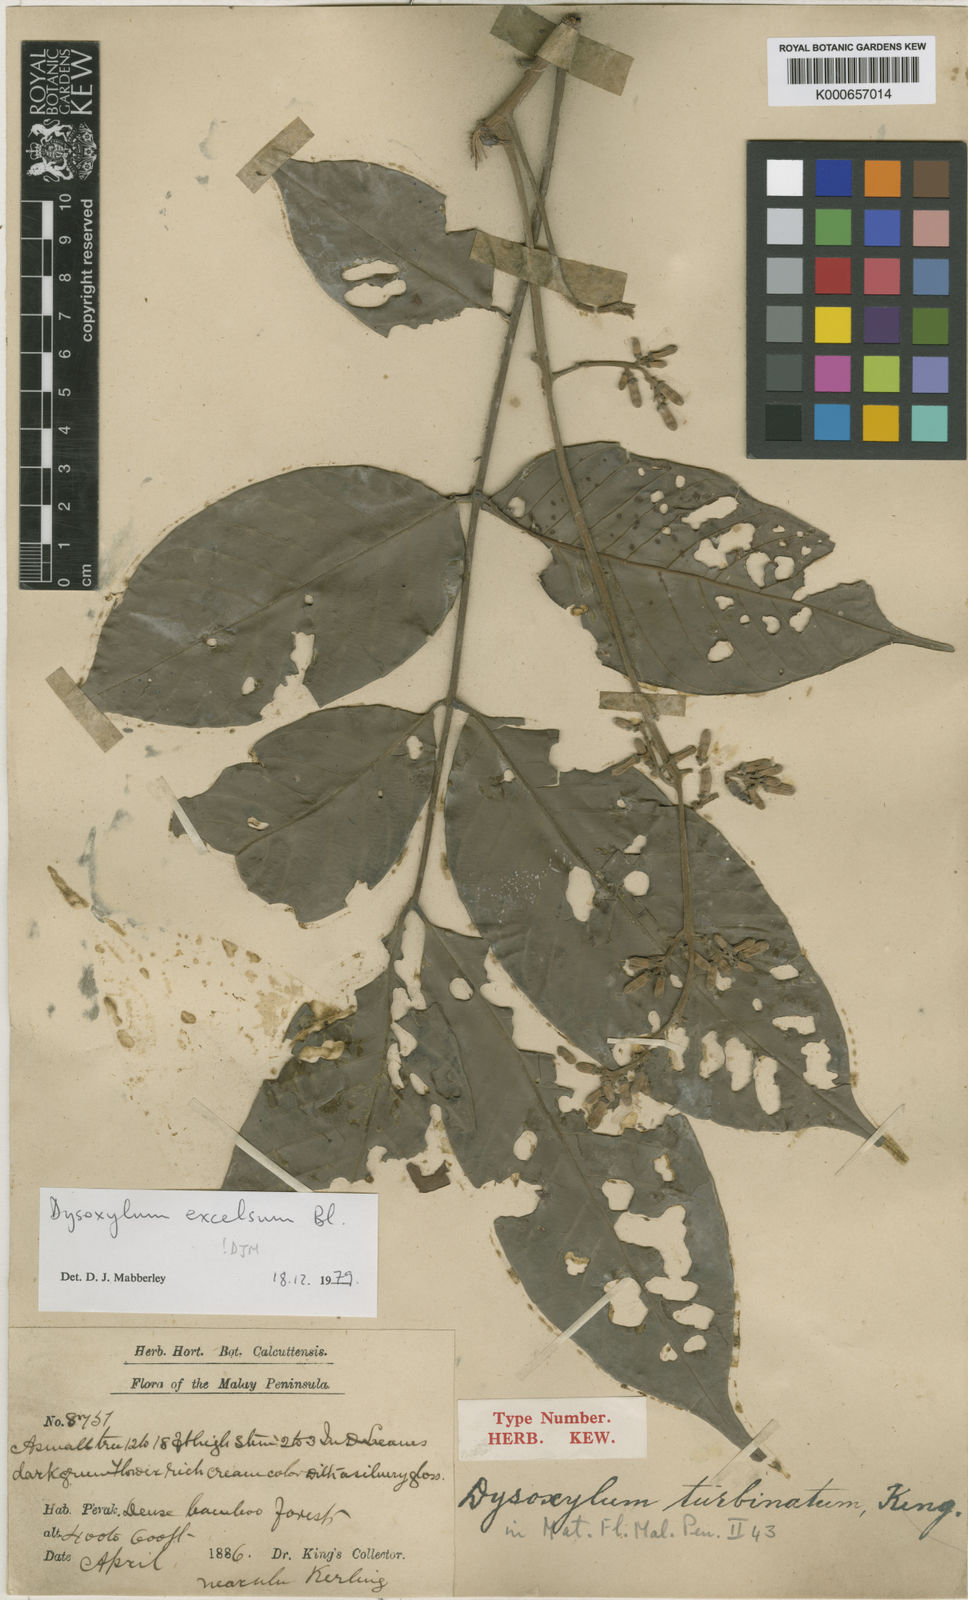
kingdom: Plantae
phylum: Tracheophyta
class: Magnoliopsida
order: Sapindales
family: Meliaceae
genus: Dysoxylum
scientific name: Dysoxylum excelsum
